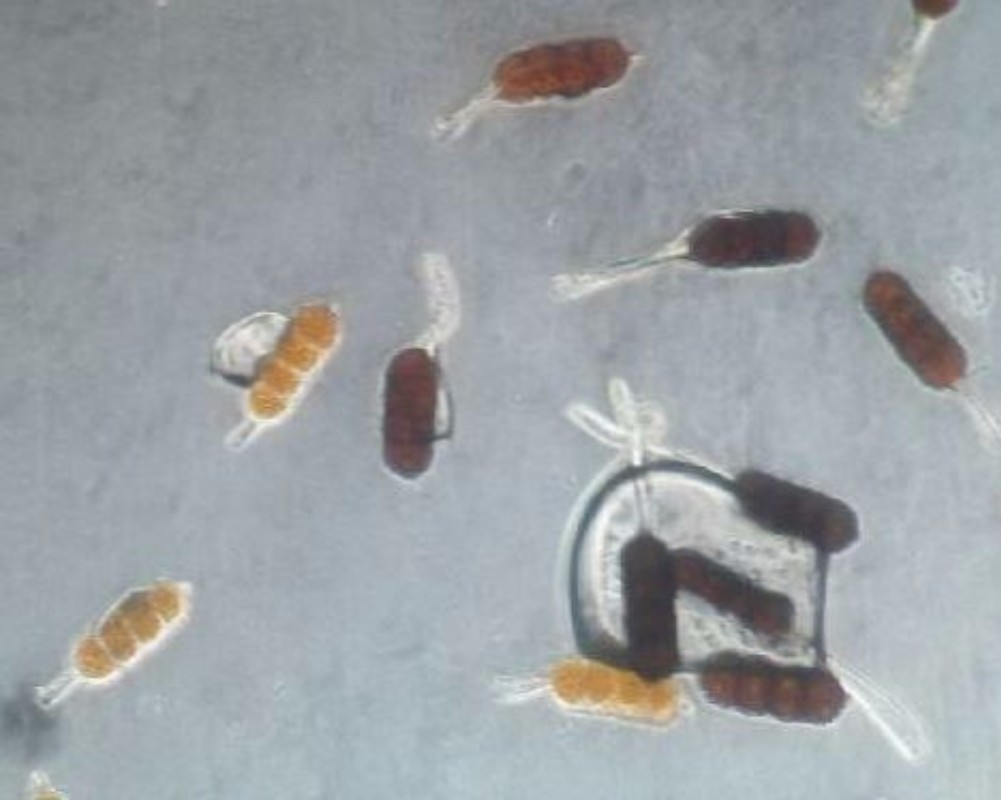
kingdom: Fungi
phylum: Basidiomycota
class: Pucciniomycetes
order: Pucciniales
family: Phragmidiaceae
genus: Phragmidium
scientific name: Phragmidium violaceum
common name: violet flercellerust
